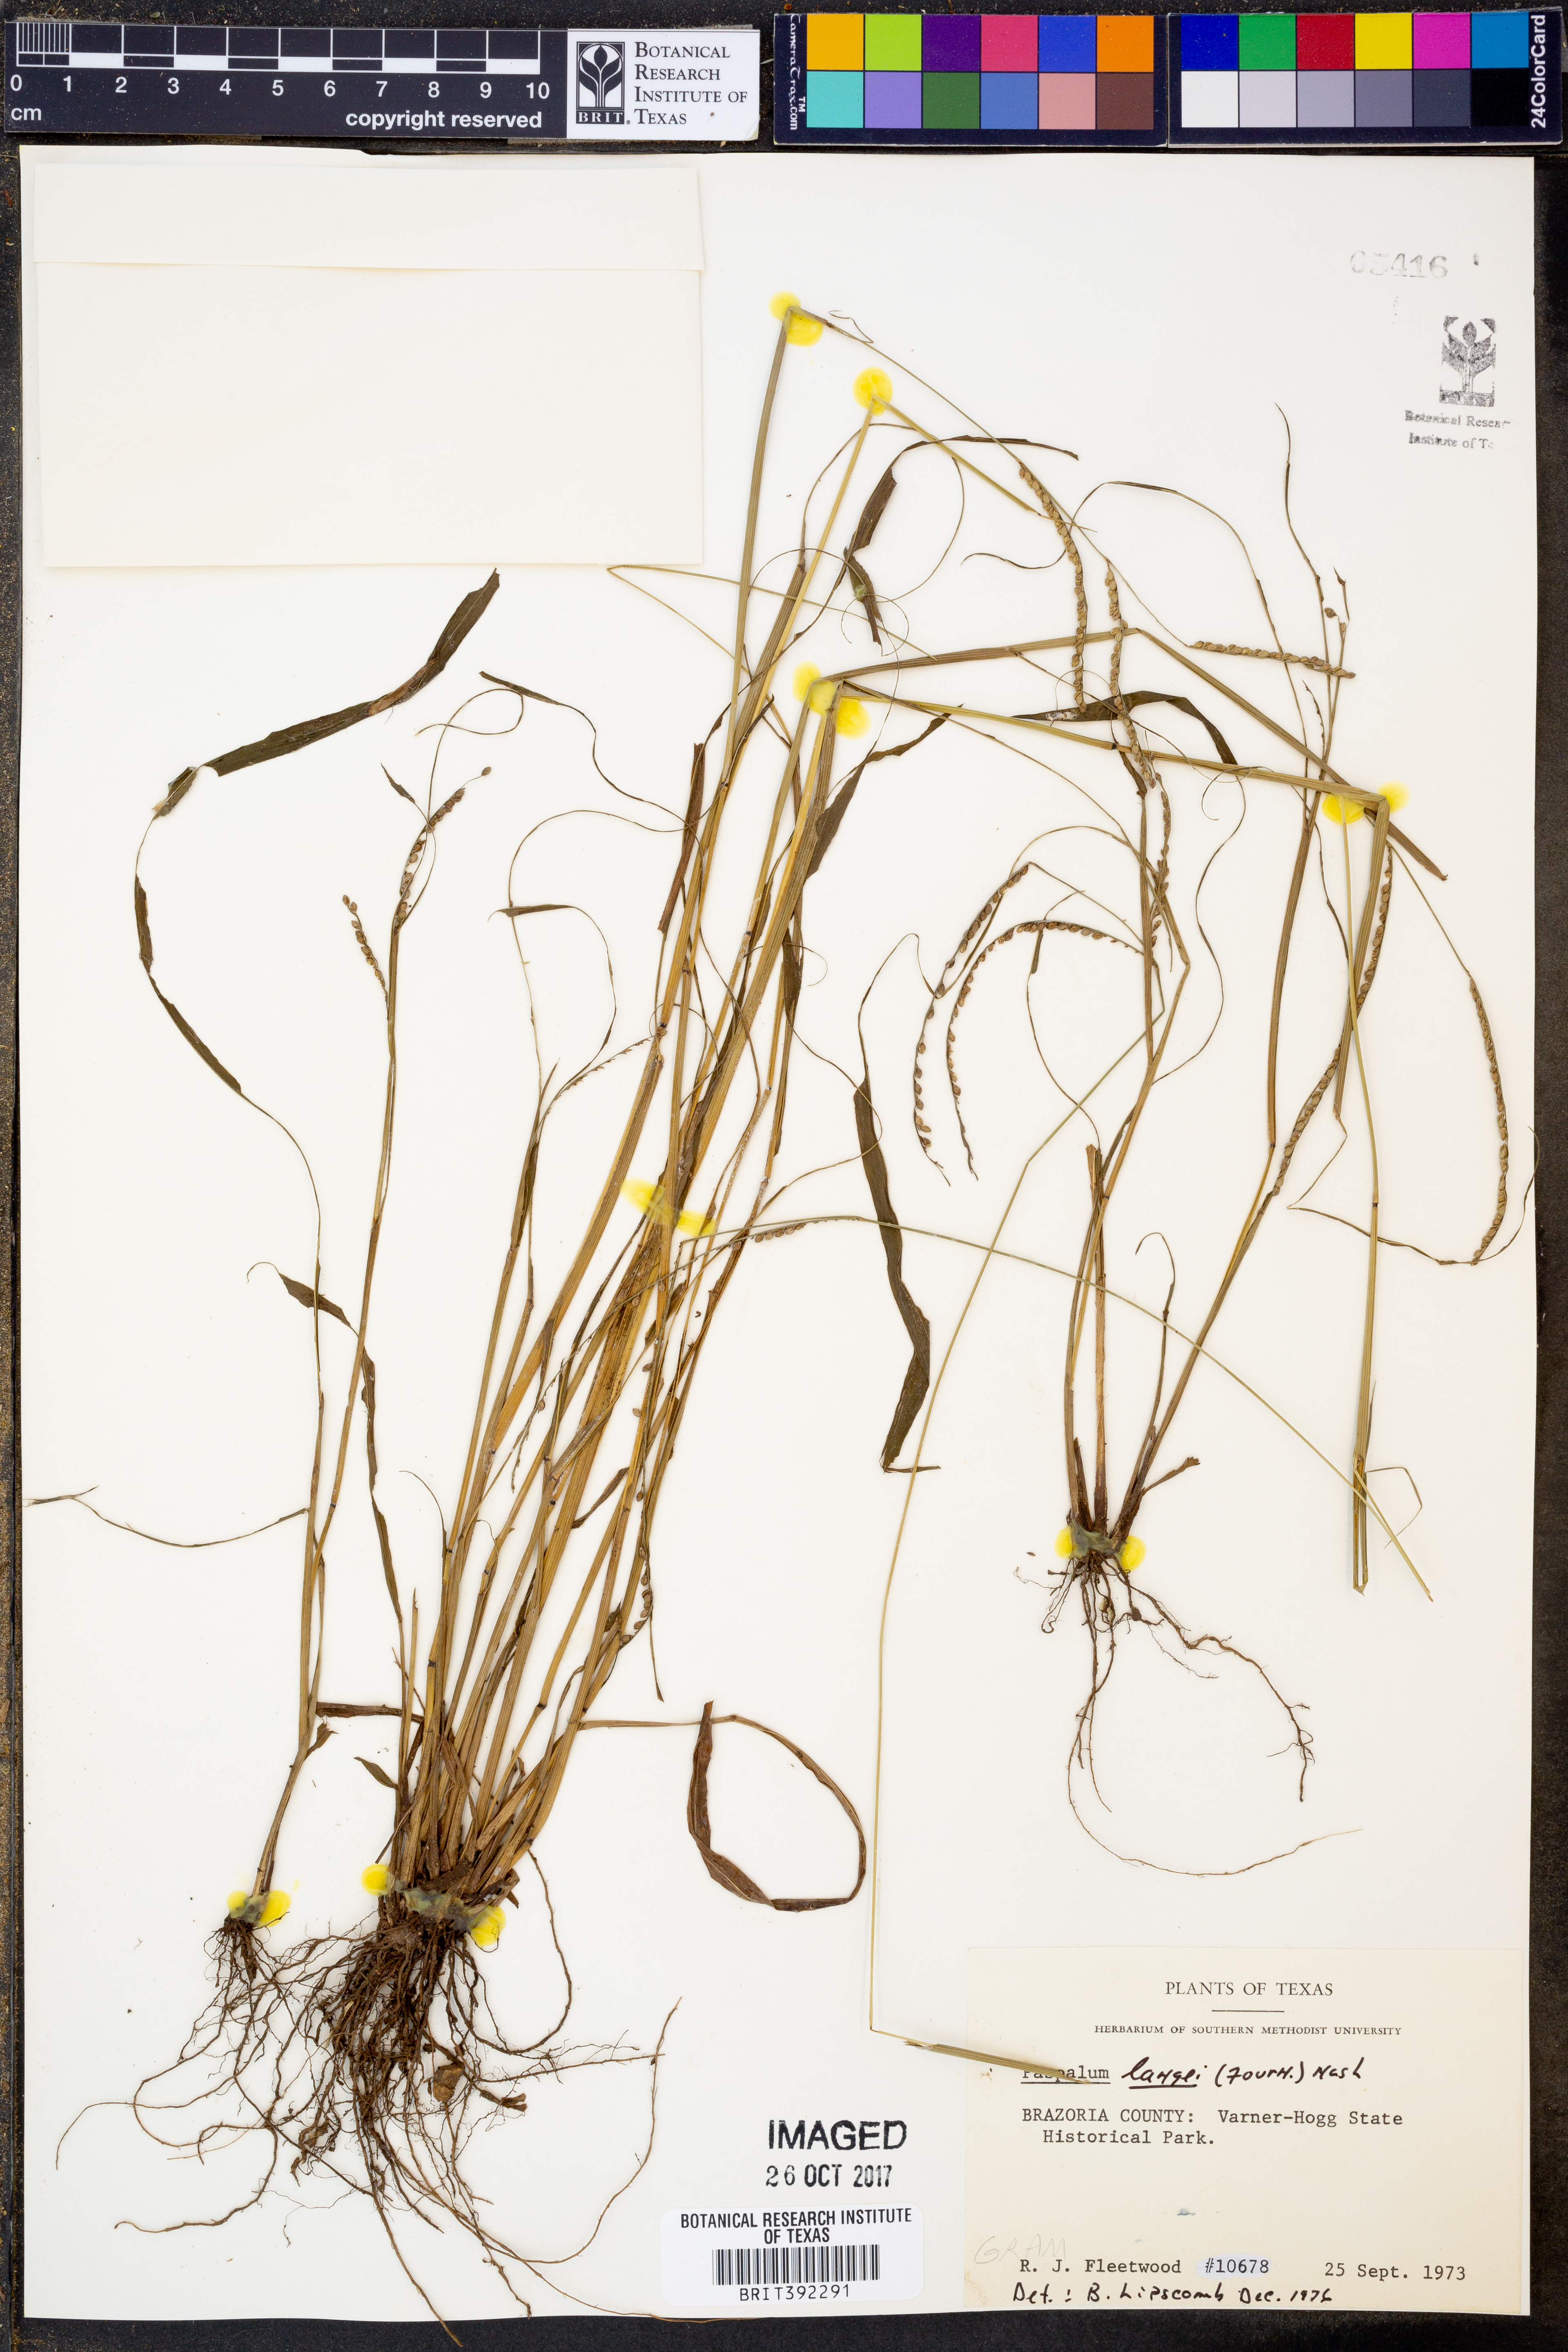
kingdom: Plantae
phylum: Tracheophyta
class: Liliopsida
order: Poales
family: Poaceae
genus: Paspalum
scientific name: Paspalum langei
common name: Rusty-seed paspalum
